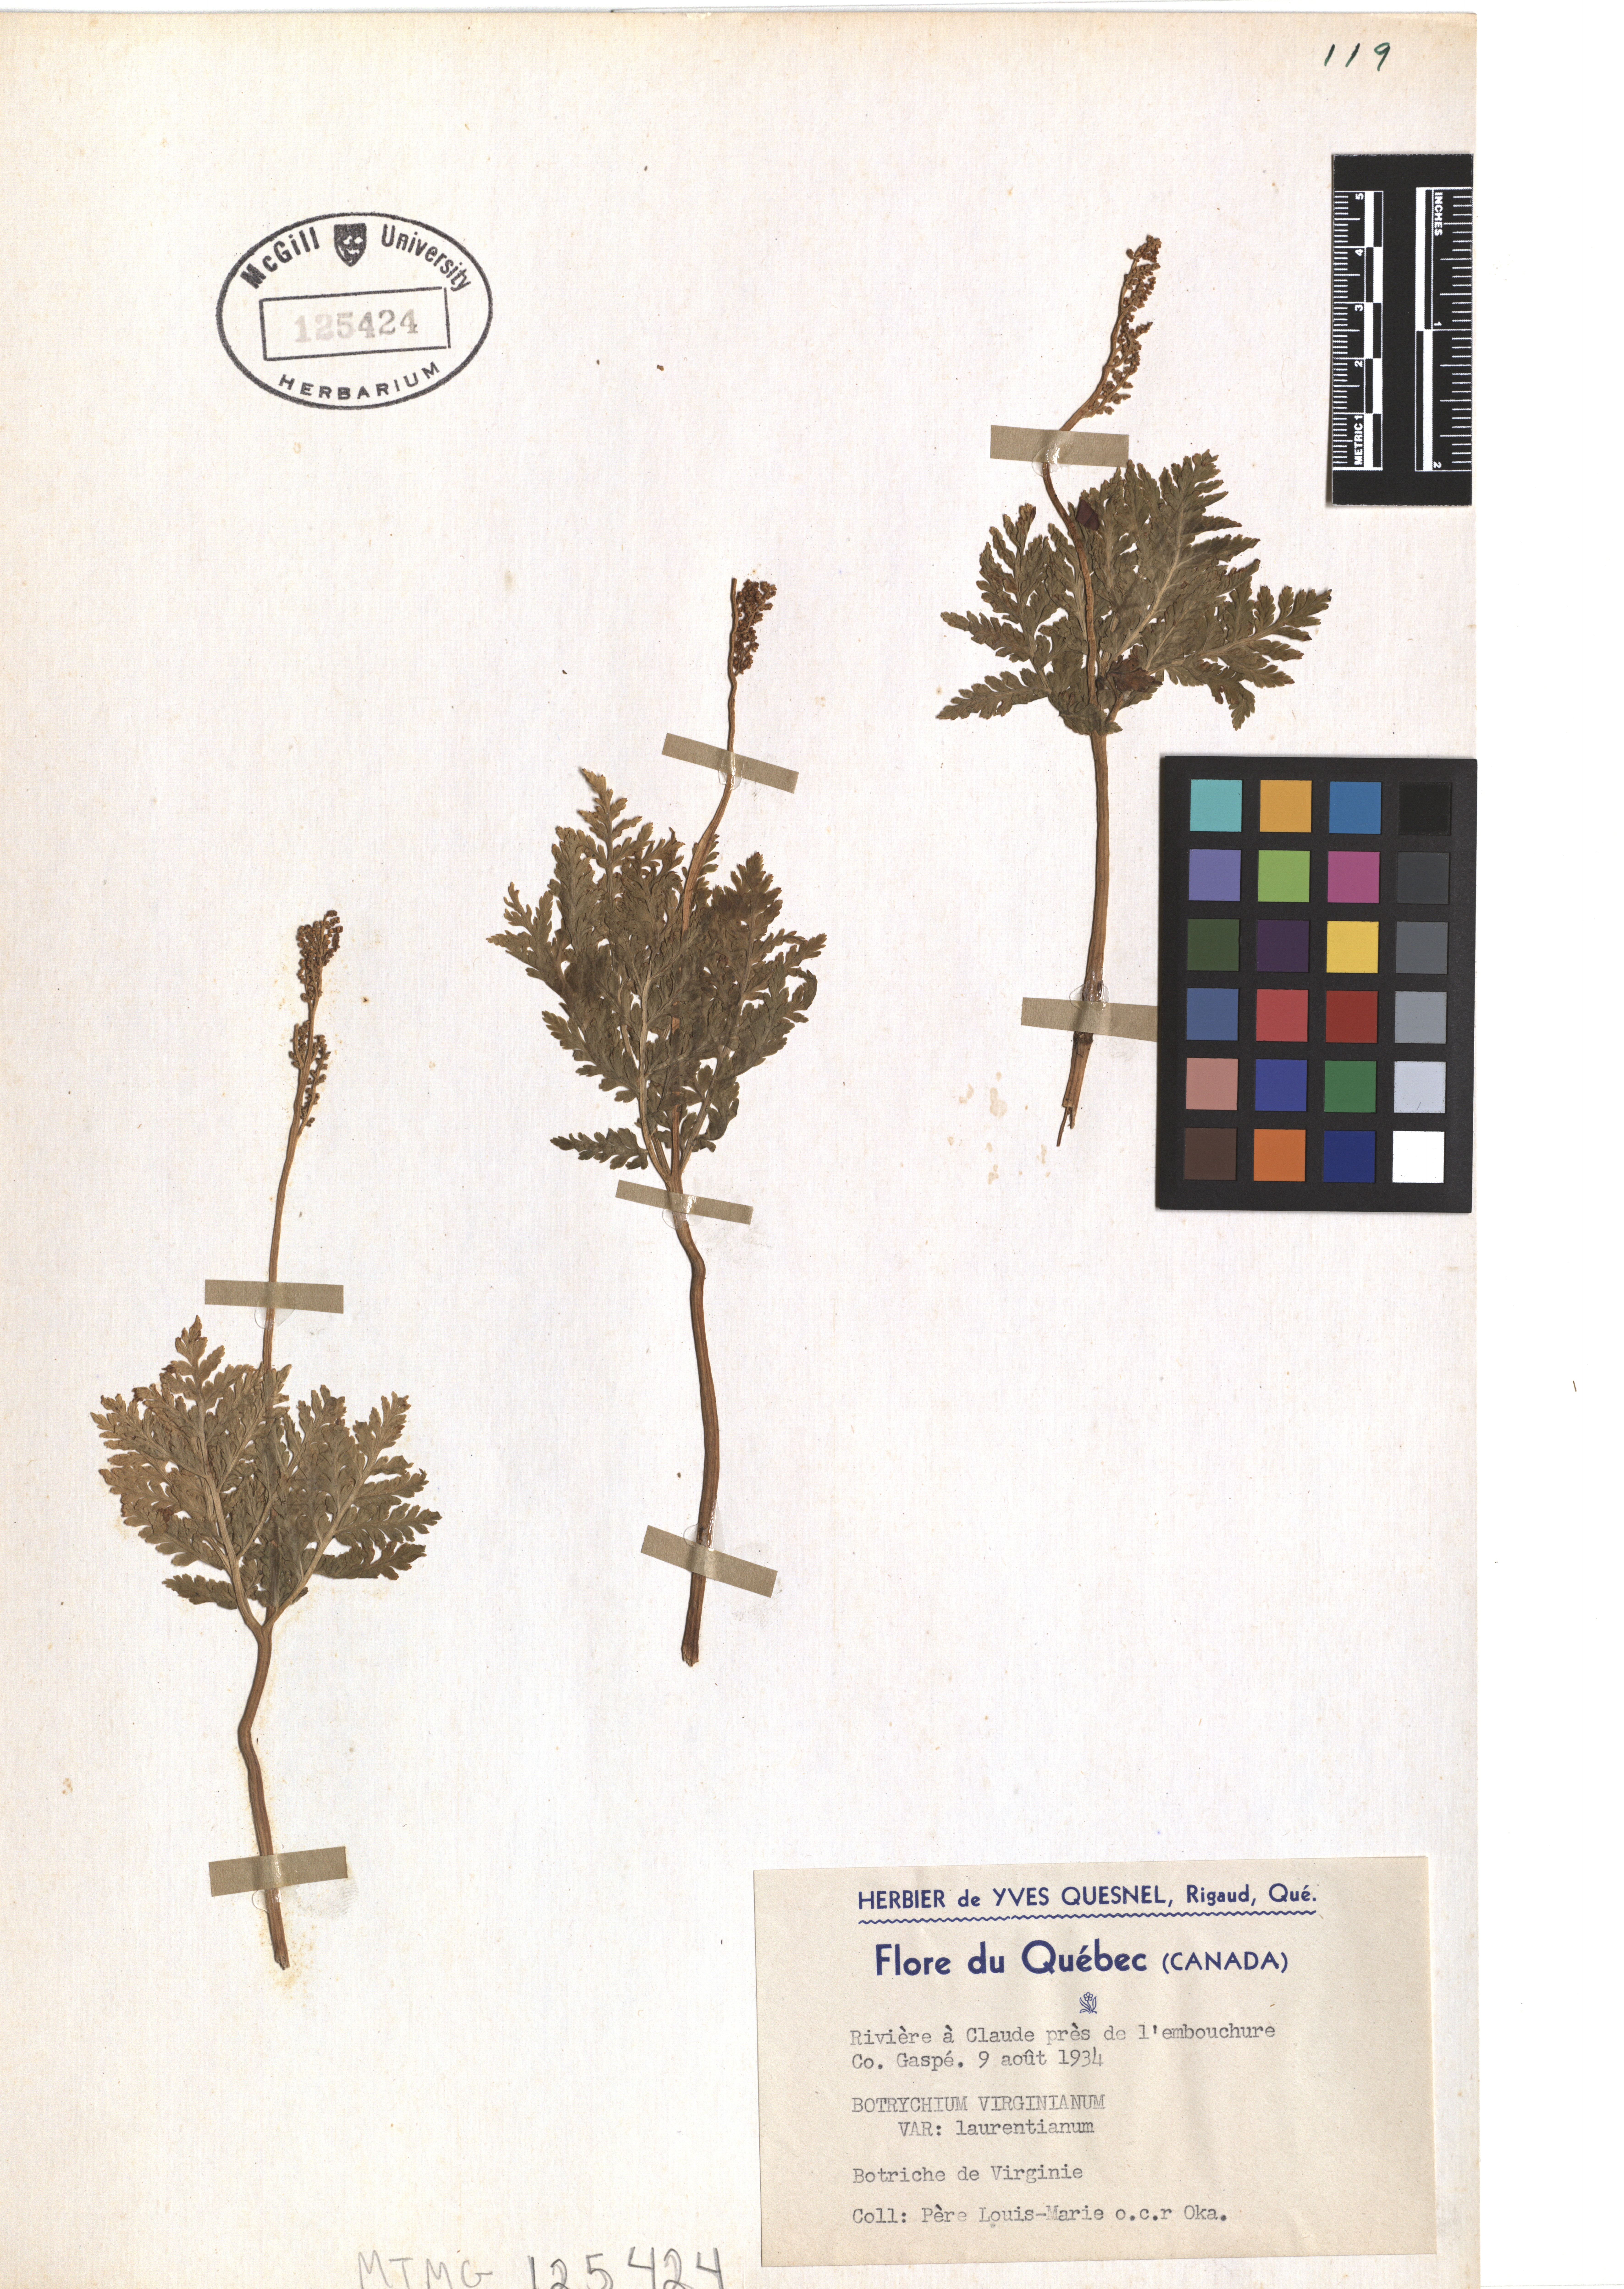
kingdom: Plantae
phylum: Tracheophyta
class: Polypodiopsida
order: Ophioglossales
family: Ophioglossaceae
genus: Botrypus
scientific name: Botrypus virginianus
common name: Common grapefern
